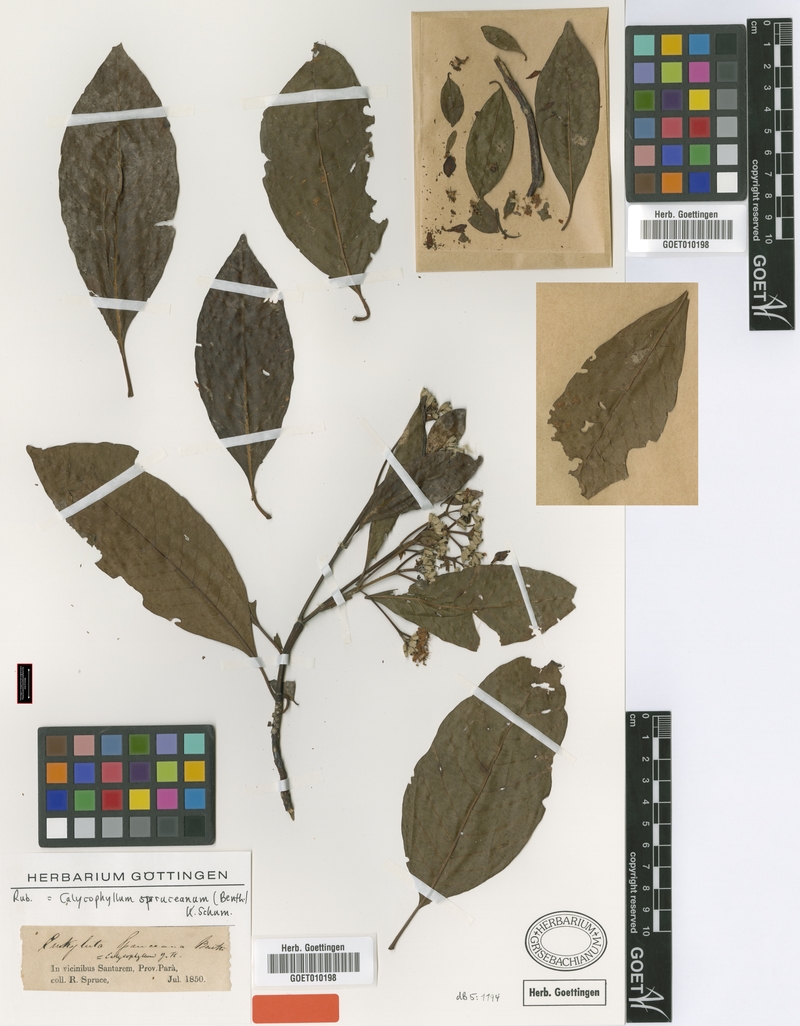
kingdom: Plantae
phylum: Tracheophyta
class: Magnoliopsida
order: Gentianales
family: Rubiaceae
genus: Calycophyllum
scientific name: Calycophyllum spruceanum
